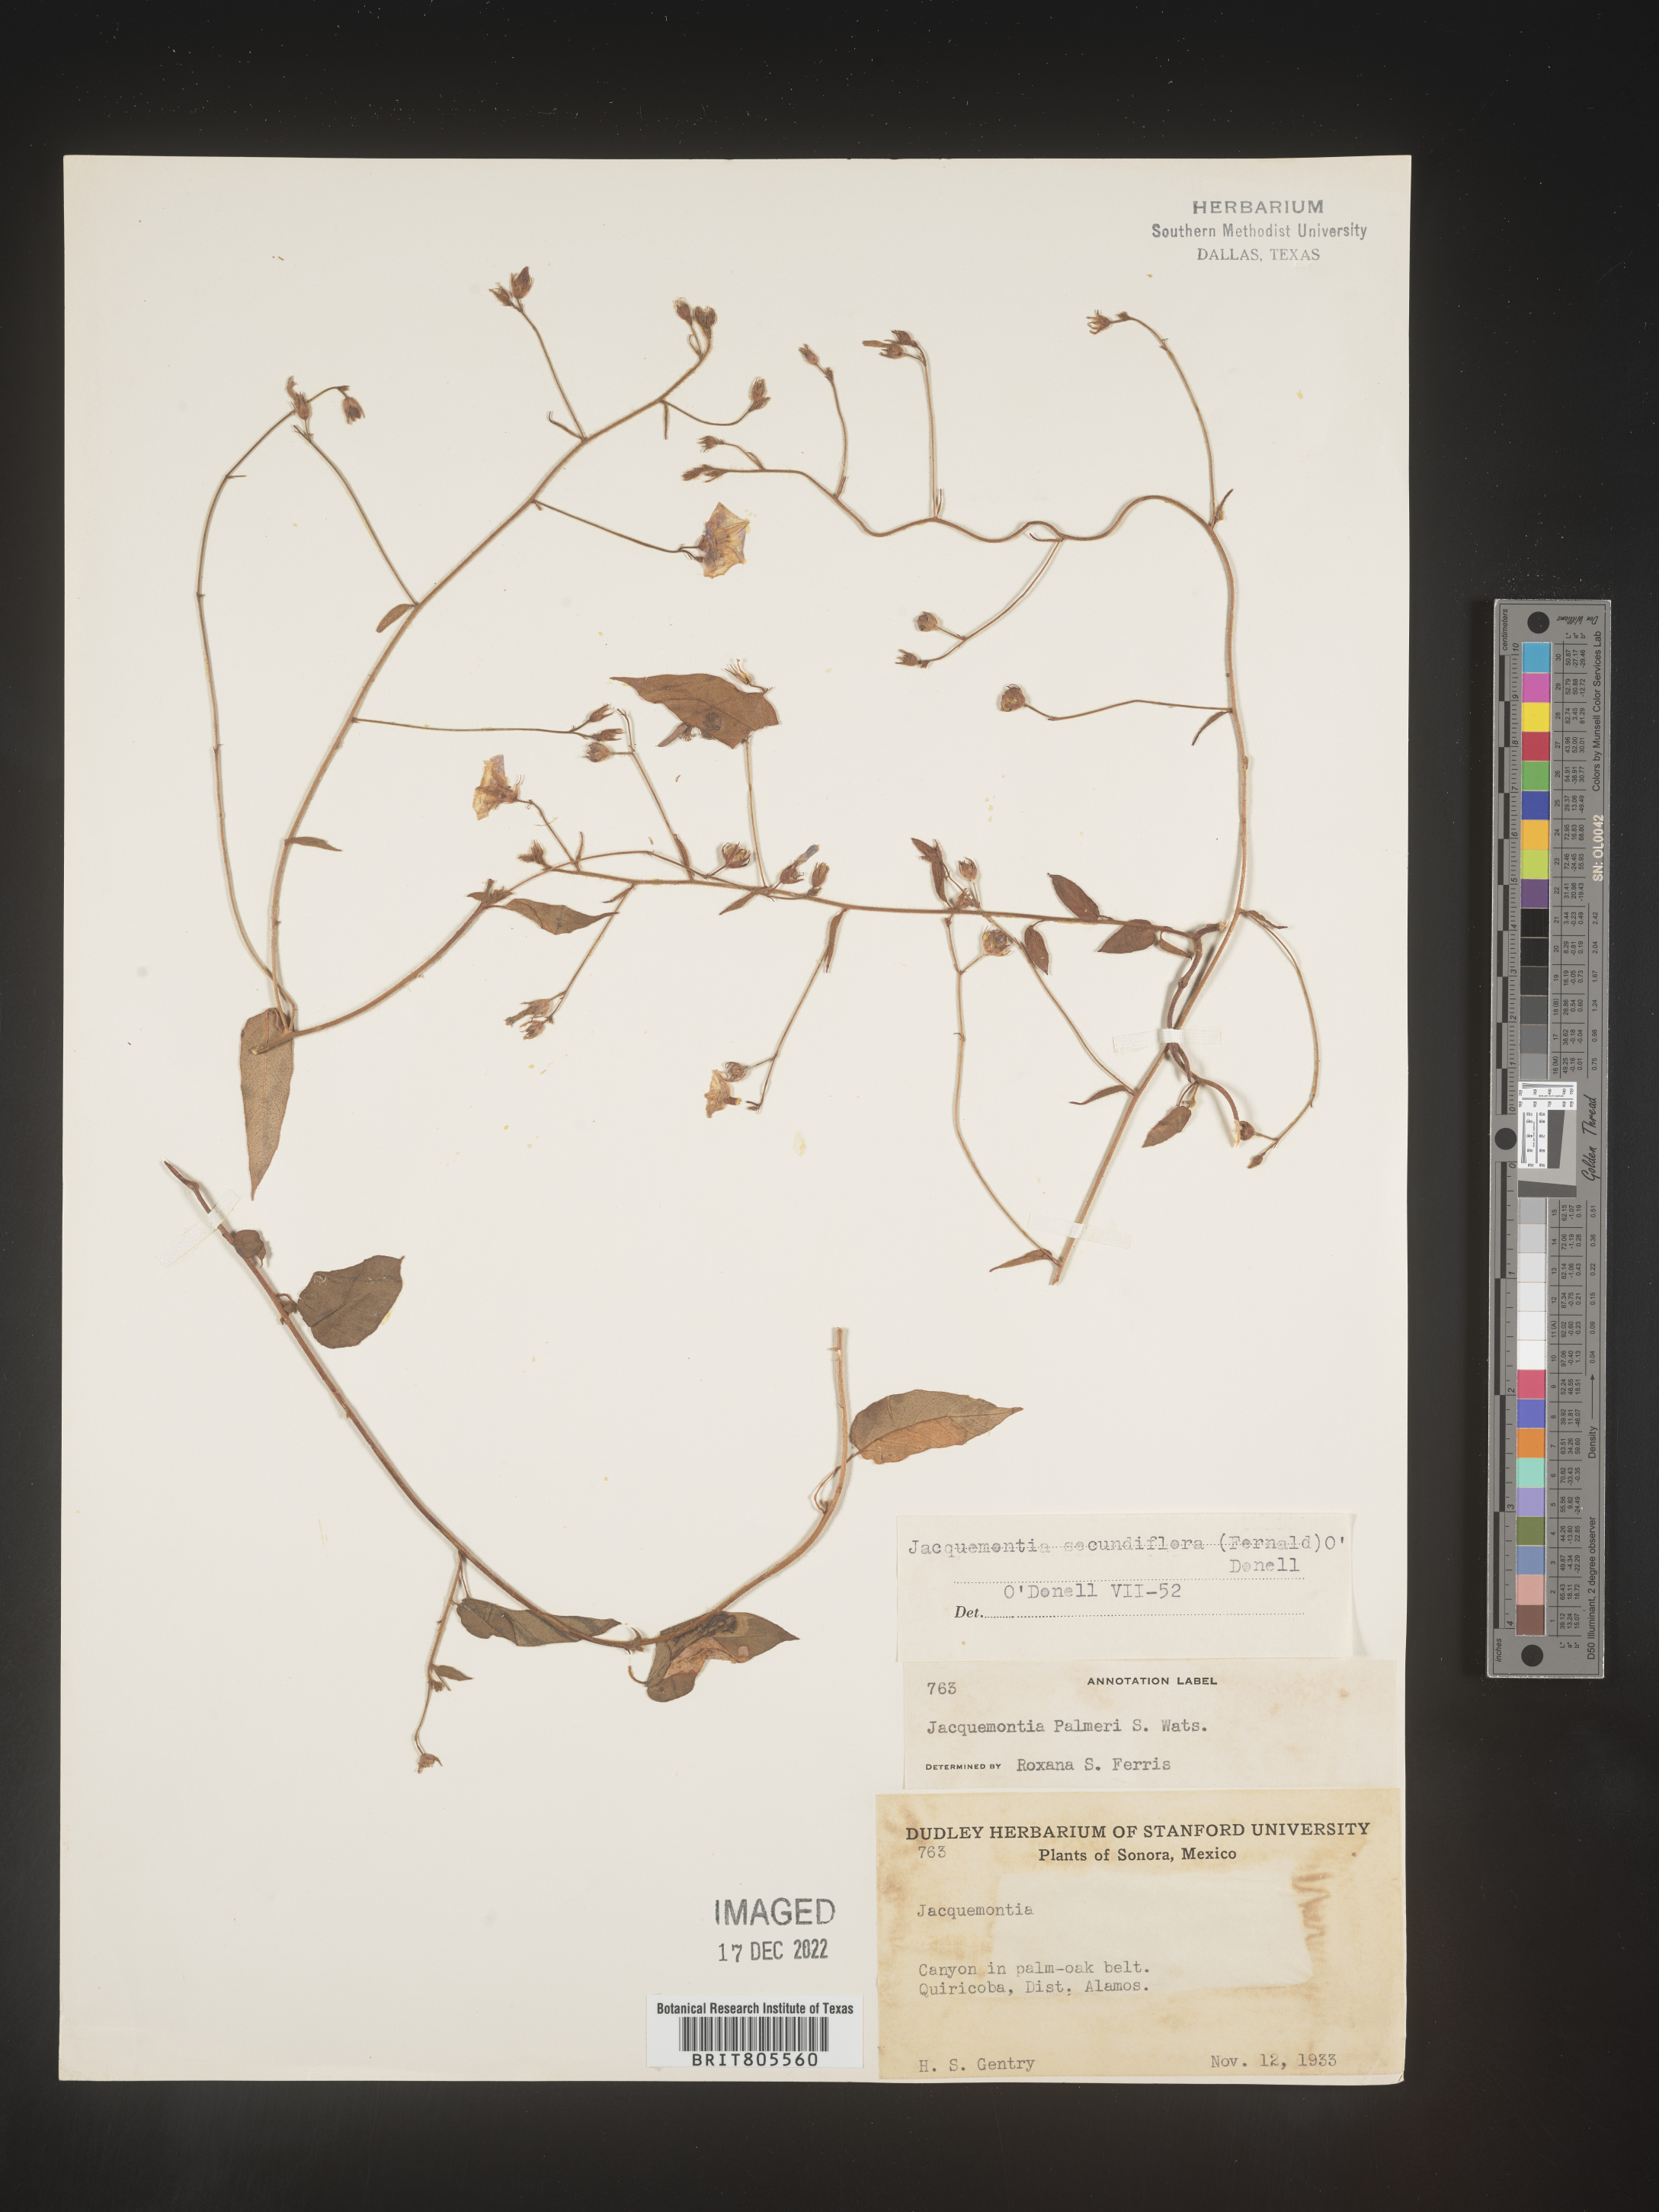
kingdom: Plantae
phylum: Tracheophyta
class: Magnoliopsida
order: Solanales
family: Convolvulaceae
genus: Jacquemontia
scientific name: Jacquemontia
